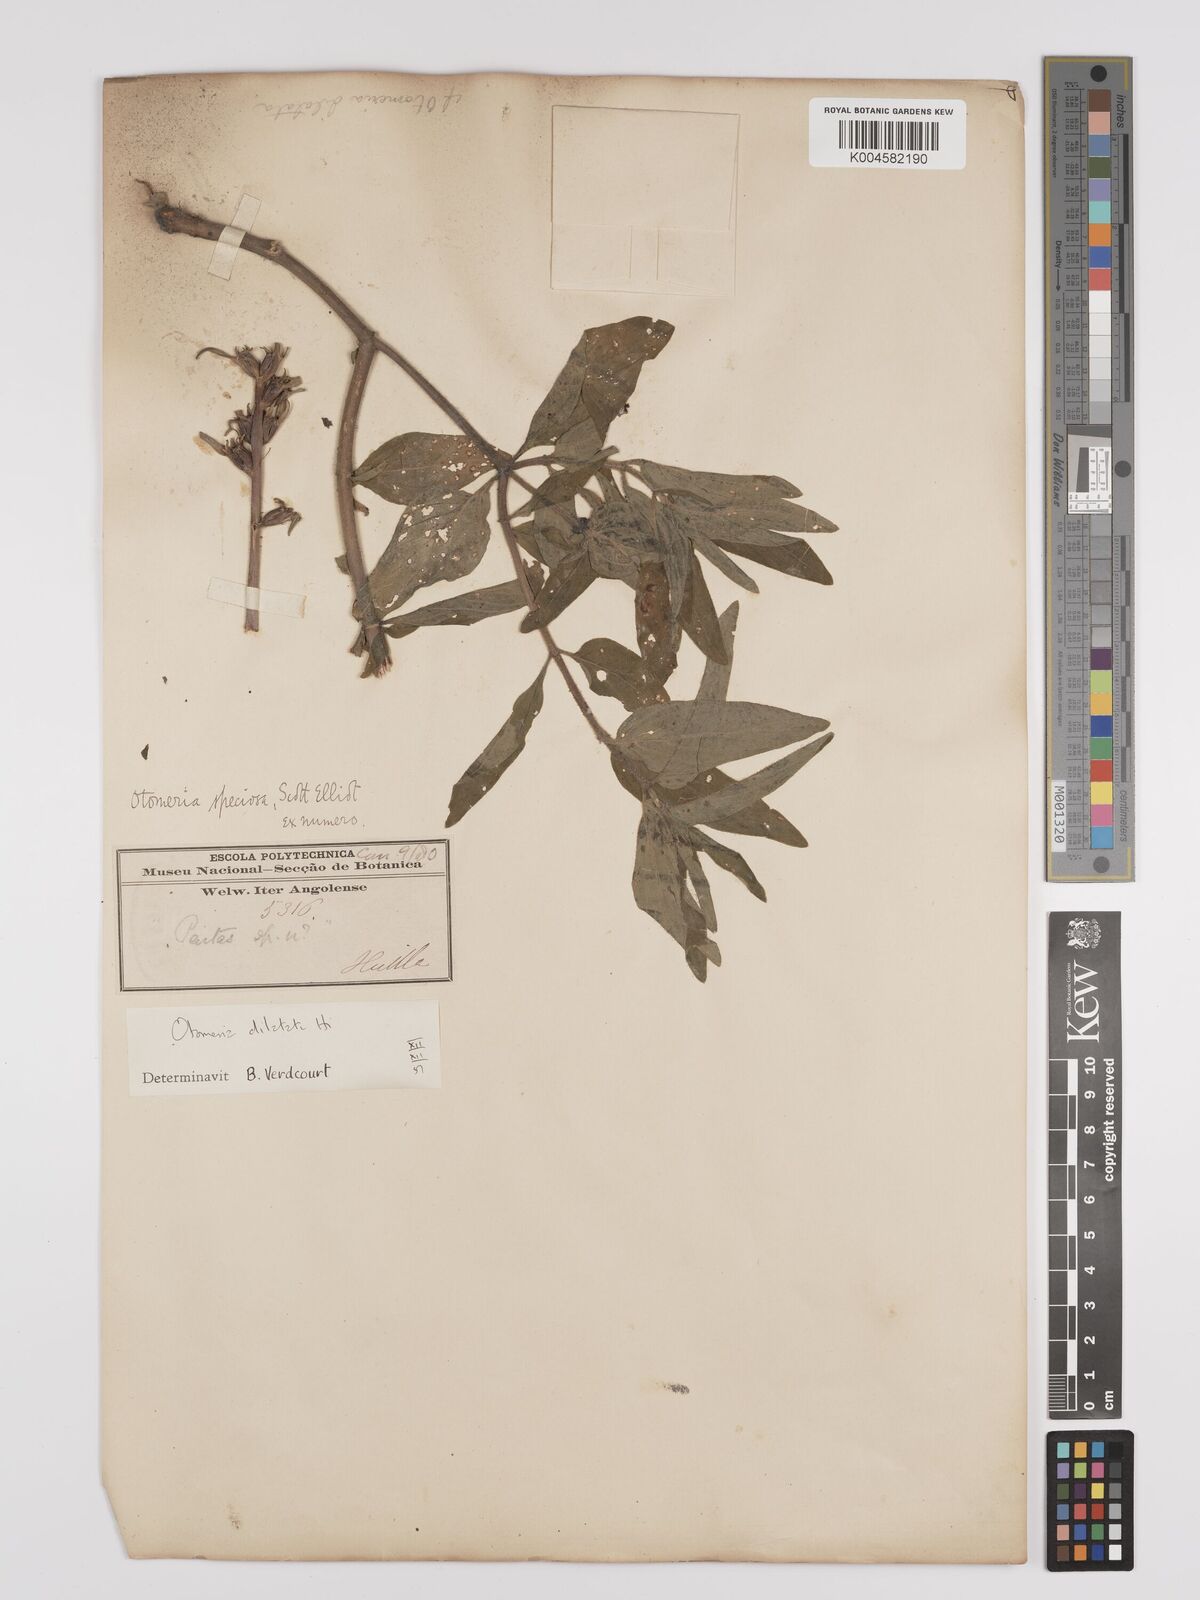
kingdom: Plantae
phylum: Tracheophyta
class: Magnoliopsida
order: Gentianales
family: Rubiaceae
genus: Otomeria
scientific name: Otomeria elatior
